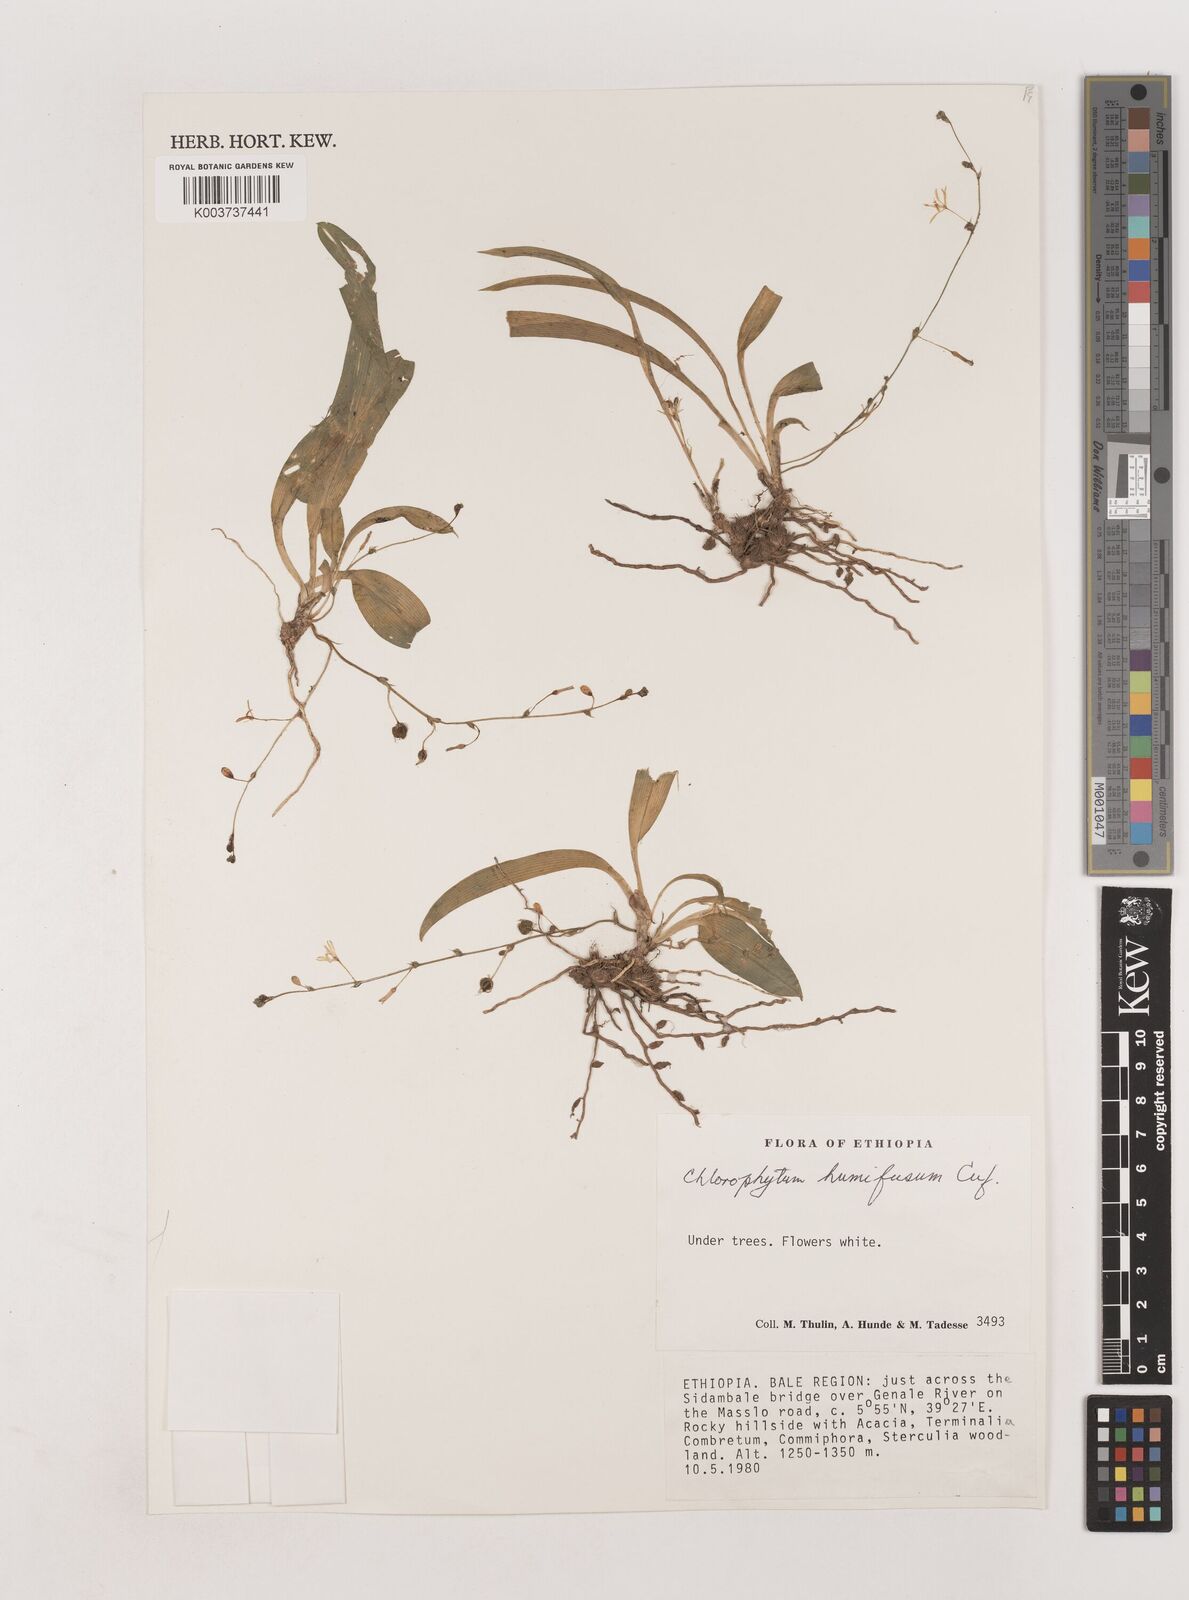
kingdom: Plantae
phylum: Tracheophyta
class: Liliopsida
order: Asparagales
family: Asparagaceae
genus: Chlorophytum
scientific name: Chlorophytum humifusum
